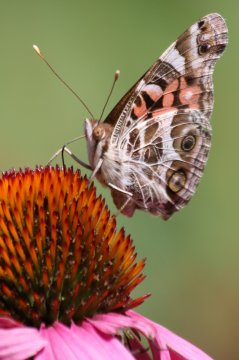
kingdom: Animalia
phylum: Arthropoda
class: Insecta
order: Lepidoptera
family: Nymphalidae
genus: Vanessa
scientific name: Vanessa virginiensis
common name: American Lady
